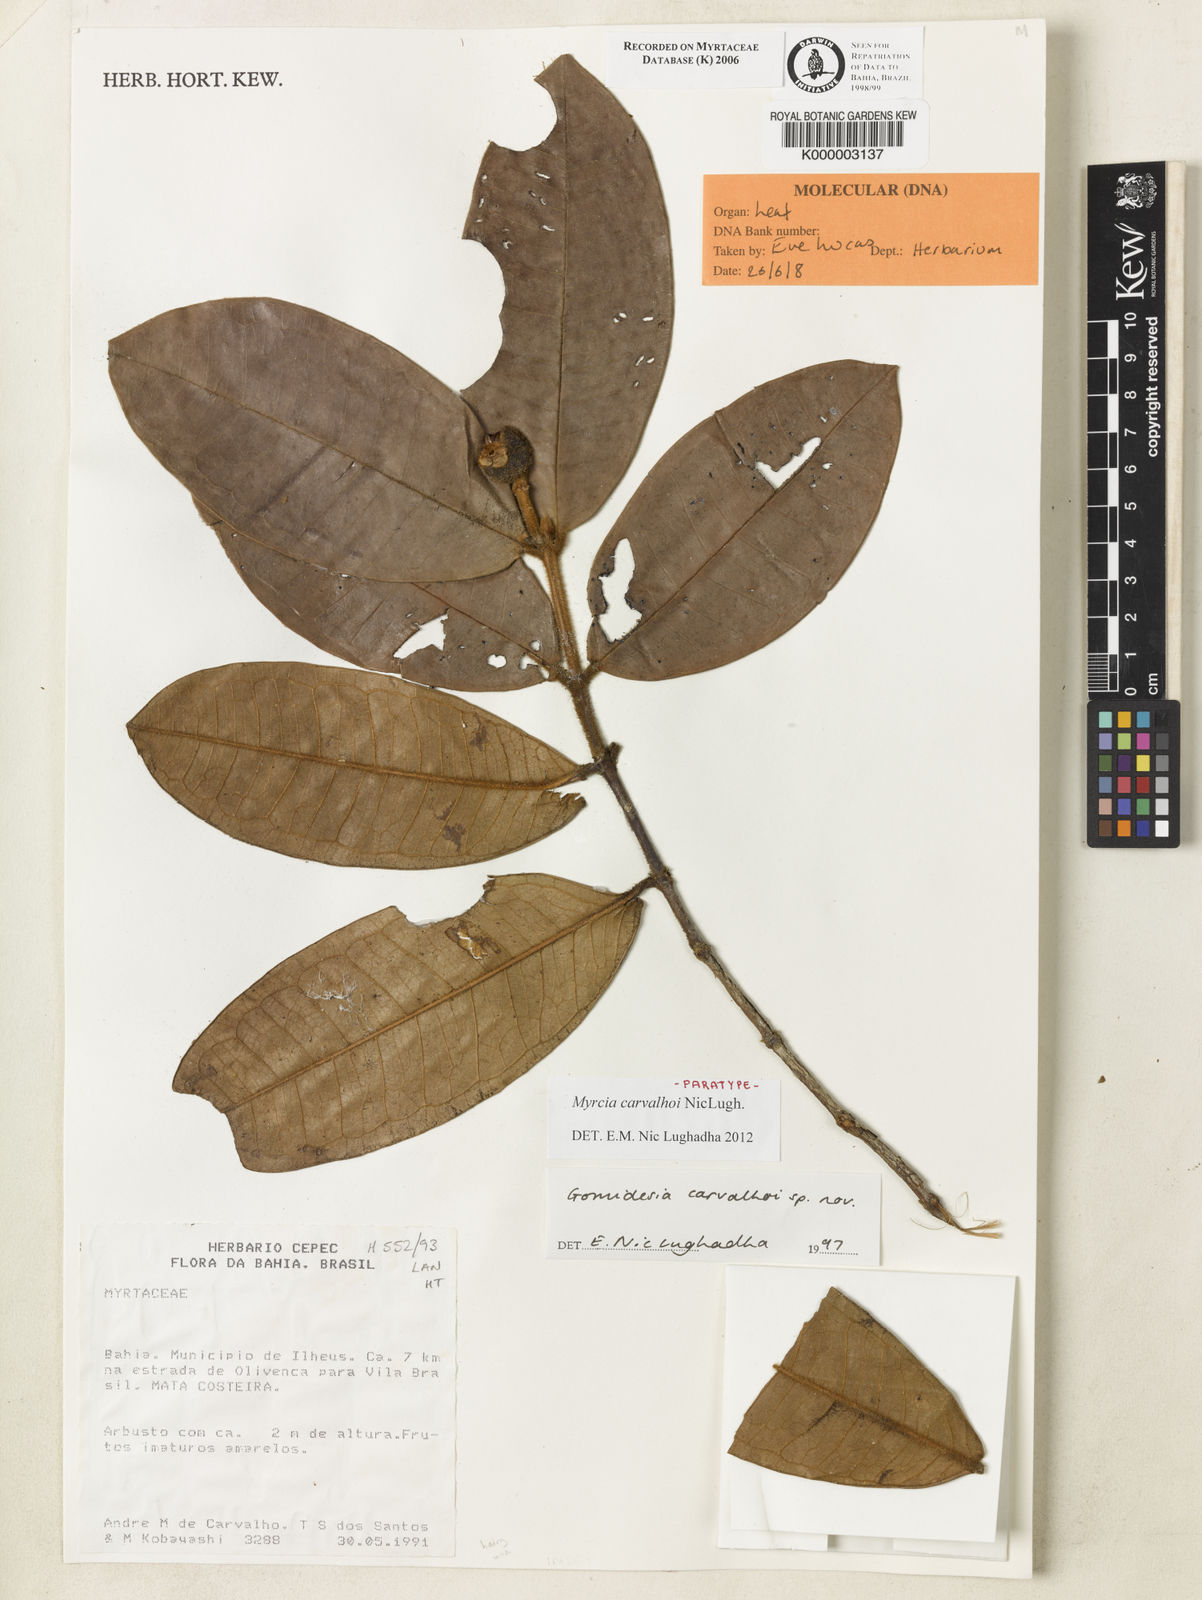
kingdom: Plantae
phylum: Tracheophyta
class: Magnoliopsida
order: Myrtales
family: Myrtaceae
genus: Myrcia
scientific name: Myrcia carvalhoi
